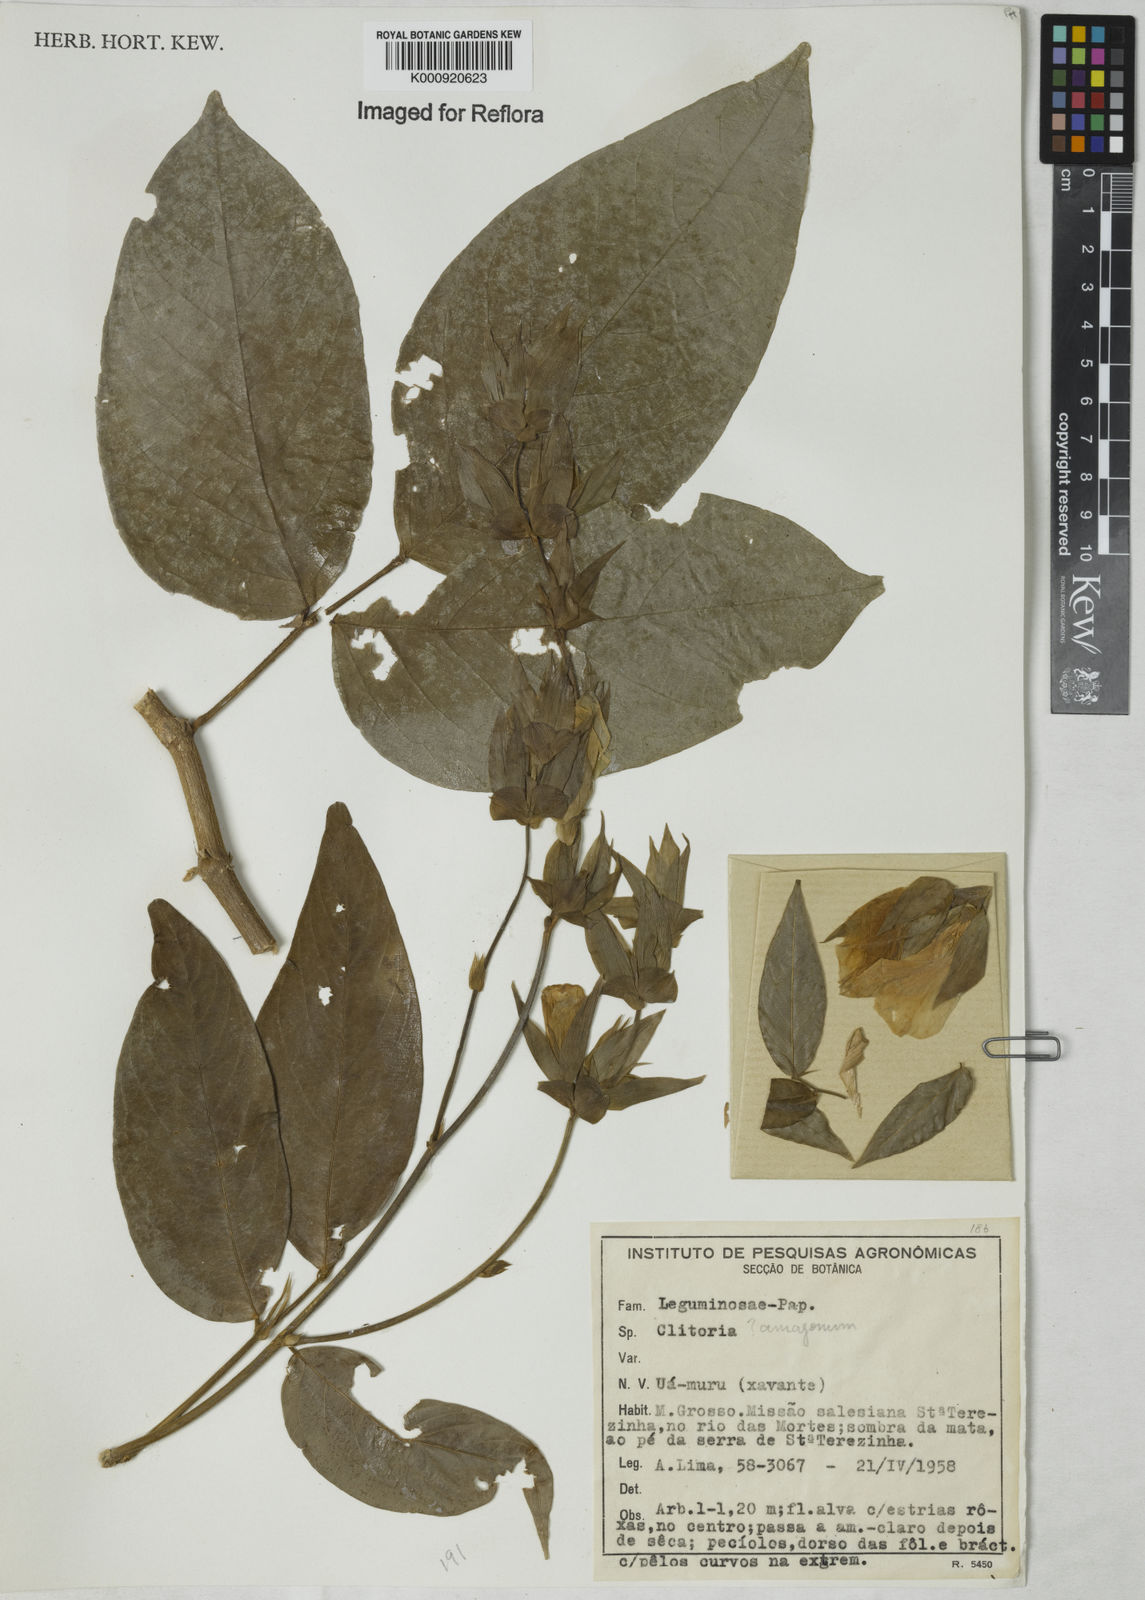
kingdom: Plantae
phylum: Tracheophyta
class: Magnoliopsida
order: Fabales
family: Fabaceae
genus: Clitoria
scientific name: Clitoria amazonum
